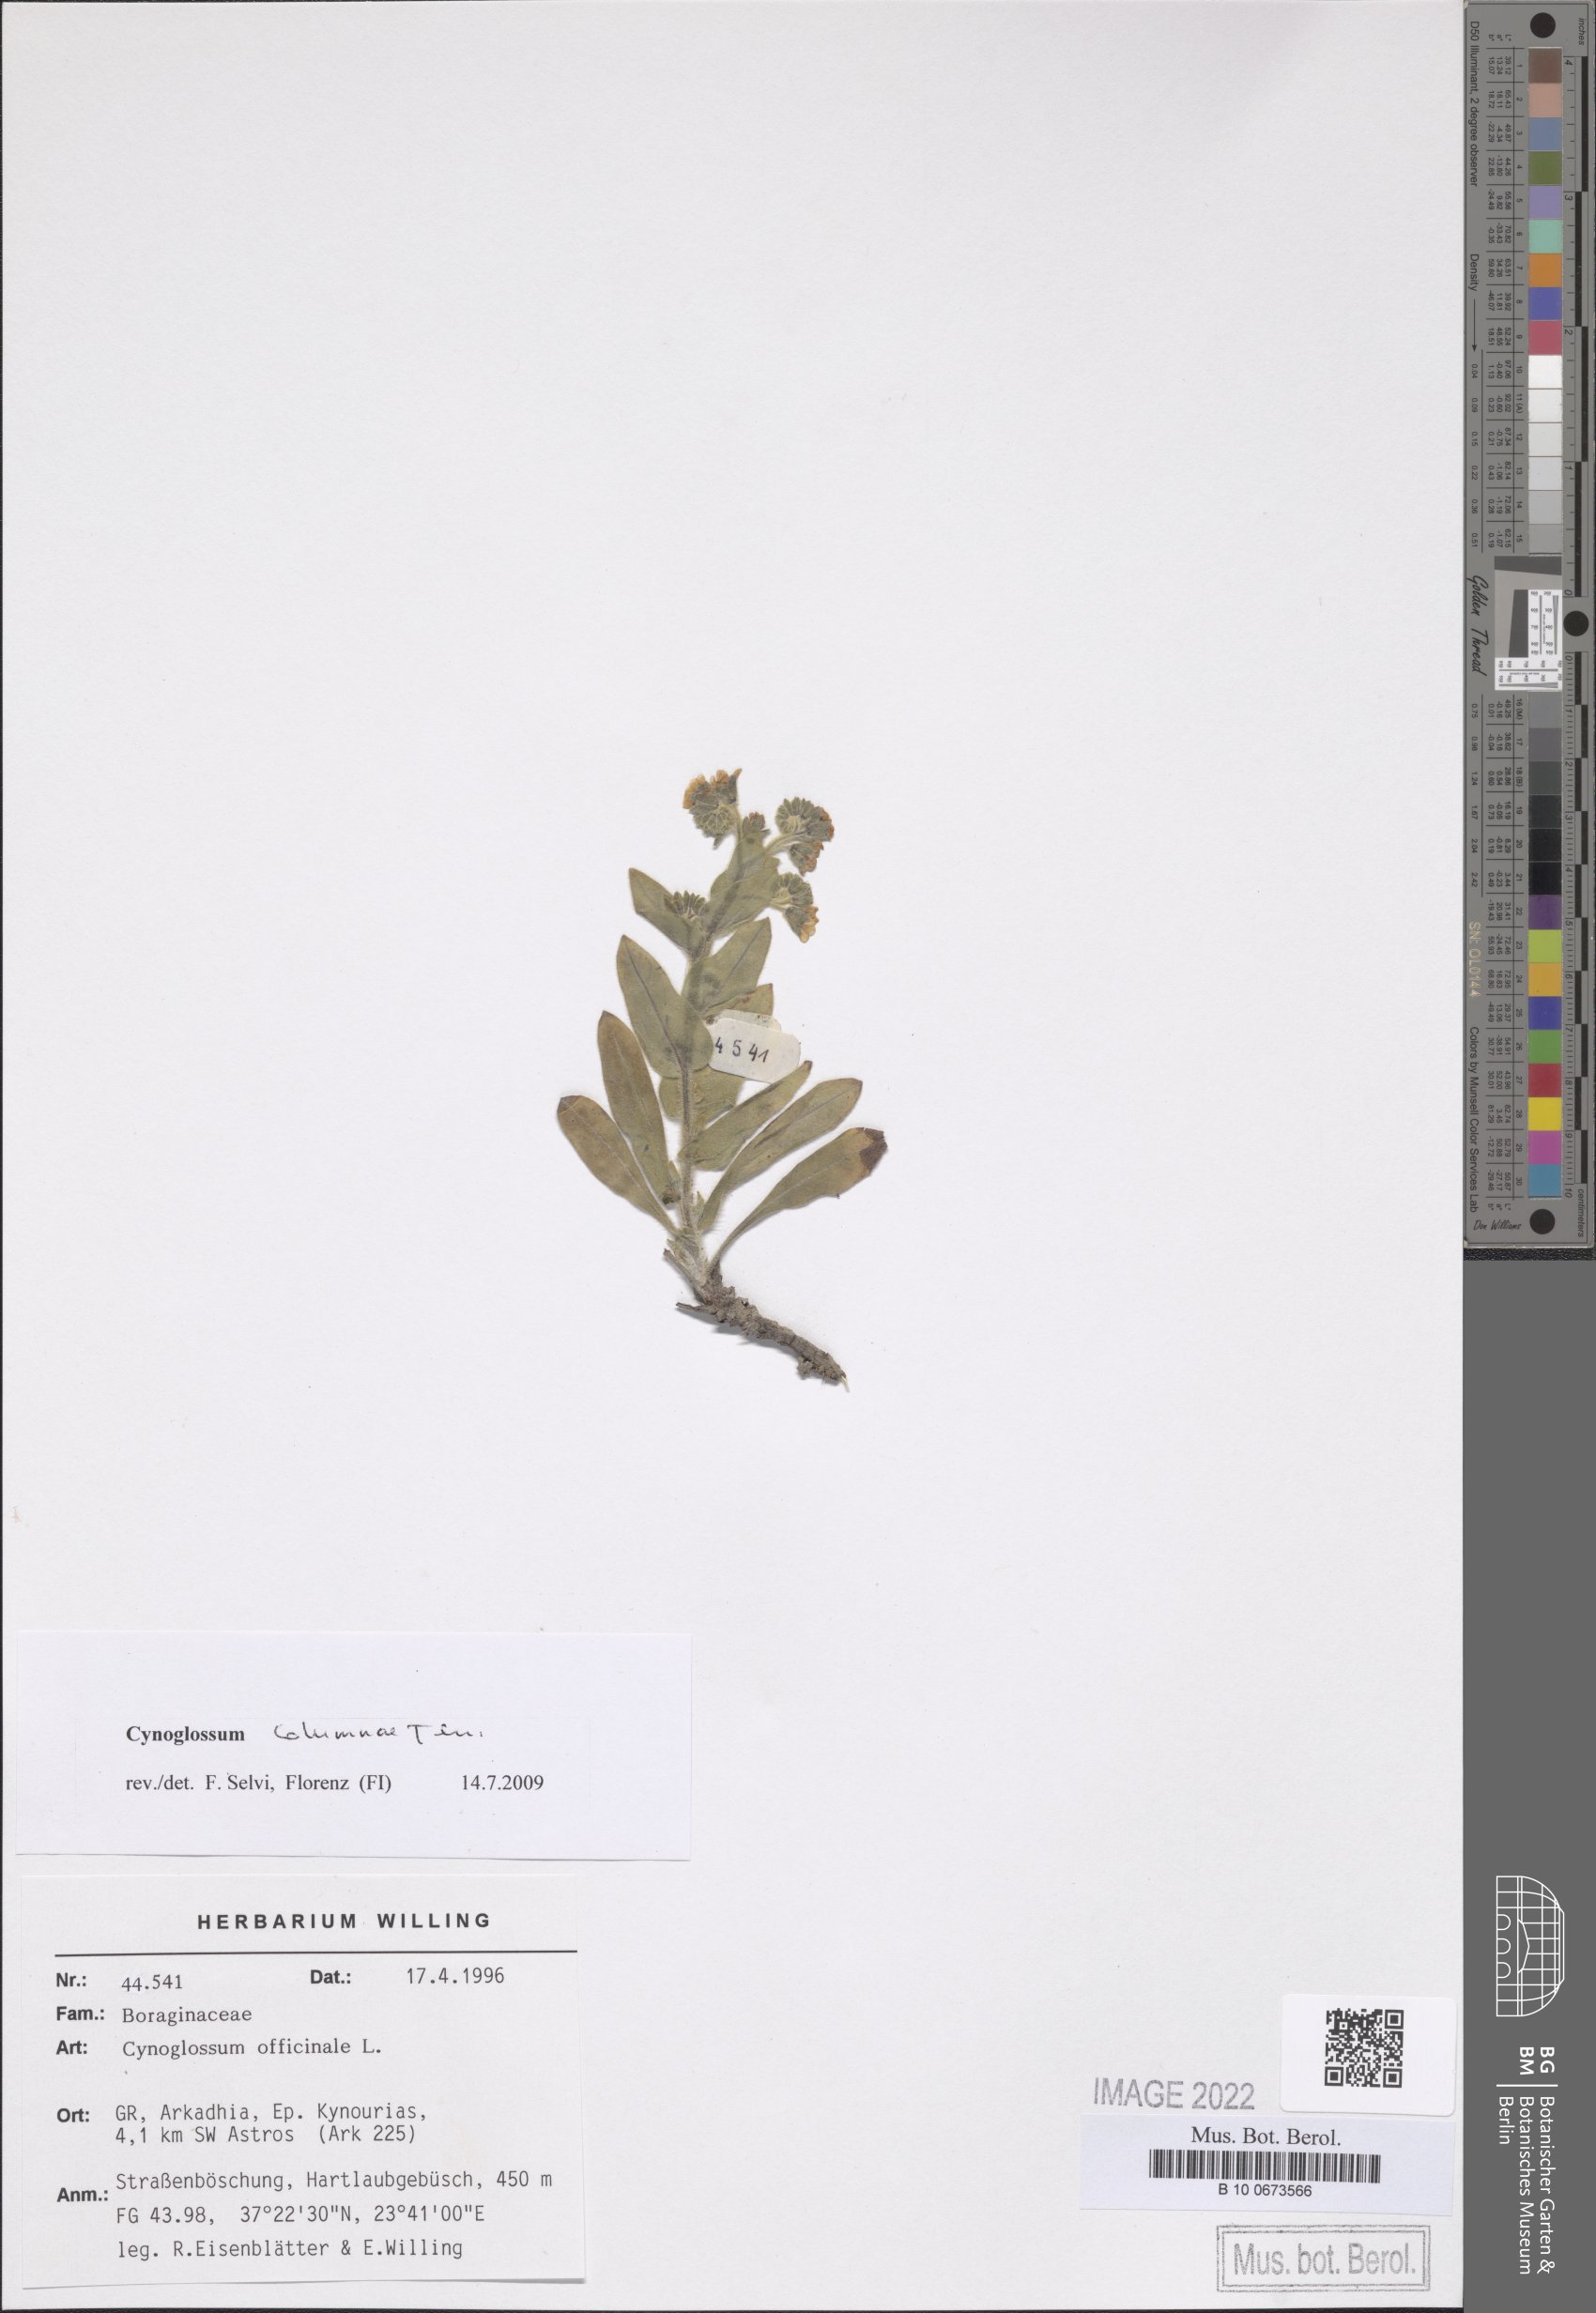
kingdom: Plantae
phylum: Tracheophyta
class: Magnoliopsida
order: Boraginales
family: Boraginaceae
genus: Rindera
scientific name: Rindera columnae
